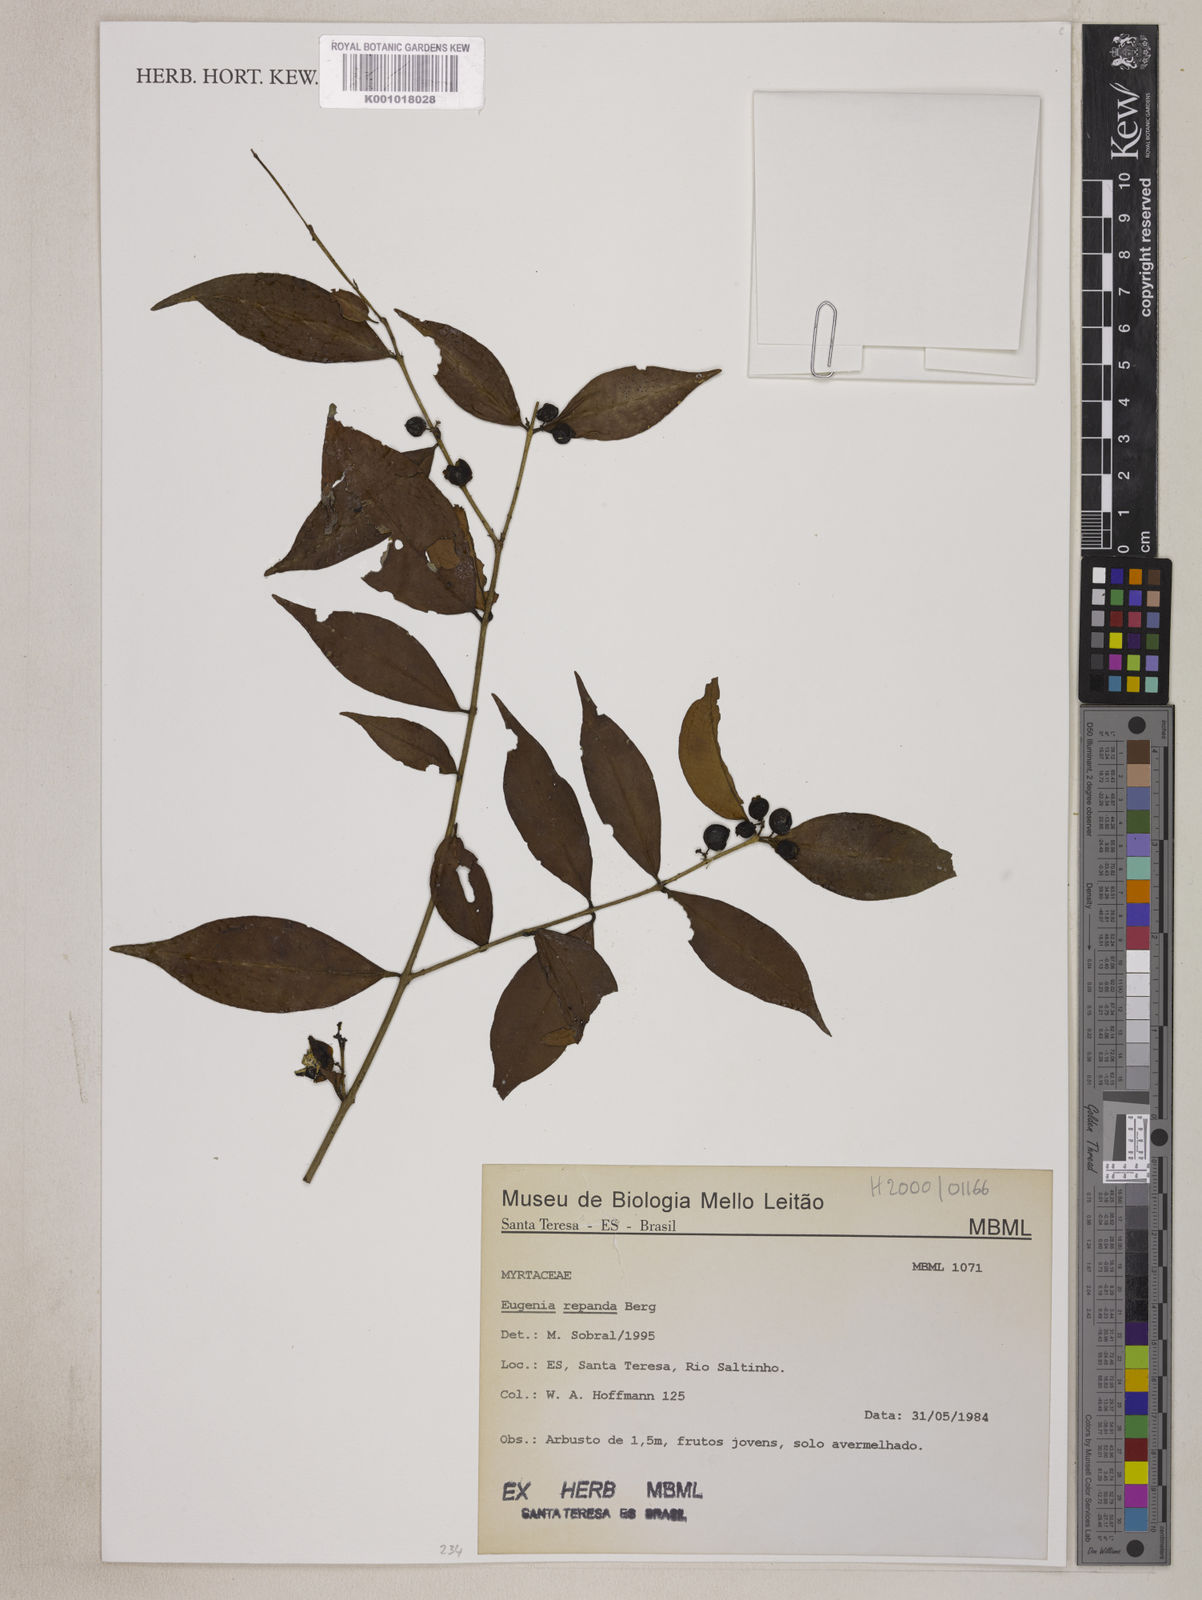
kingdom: Plantae
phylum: Tracheophyta
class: Magnoliopsida
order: Myrtales
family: Myrtaceae
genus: Eugenia
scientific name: Eugenia repanda
